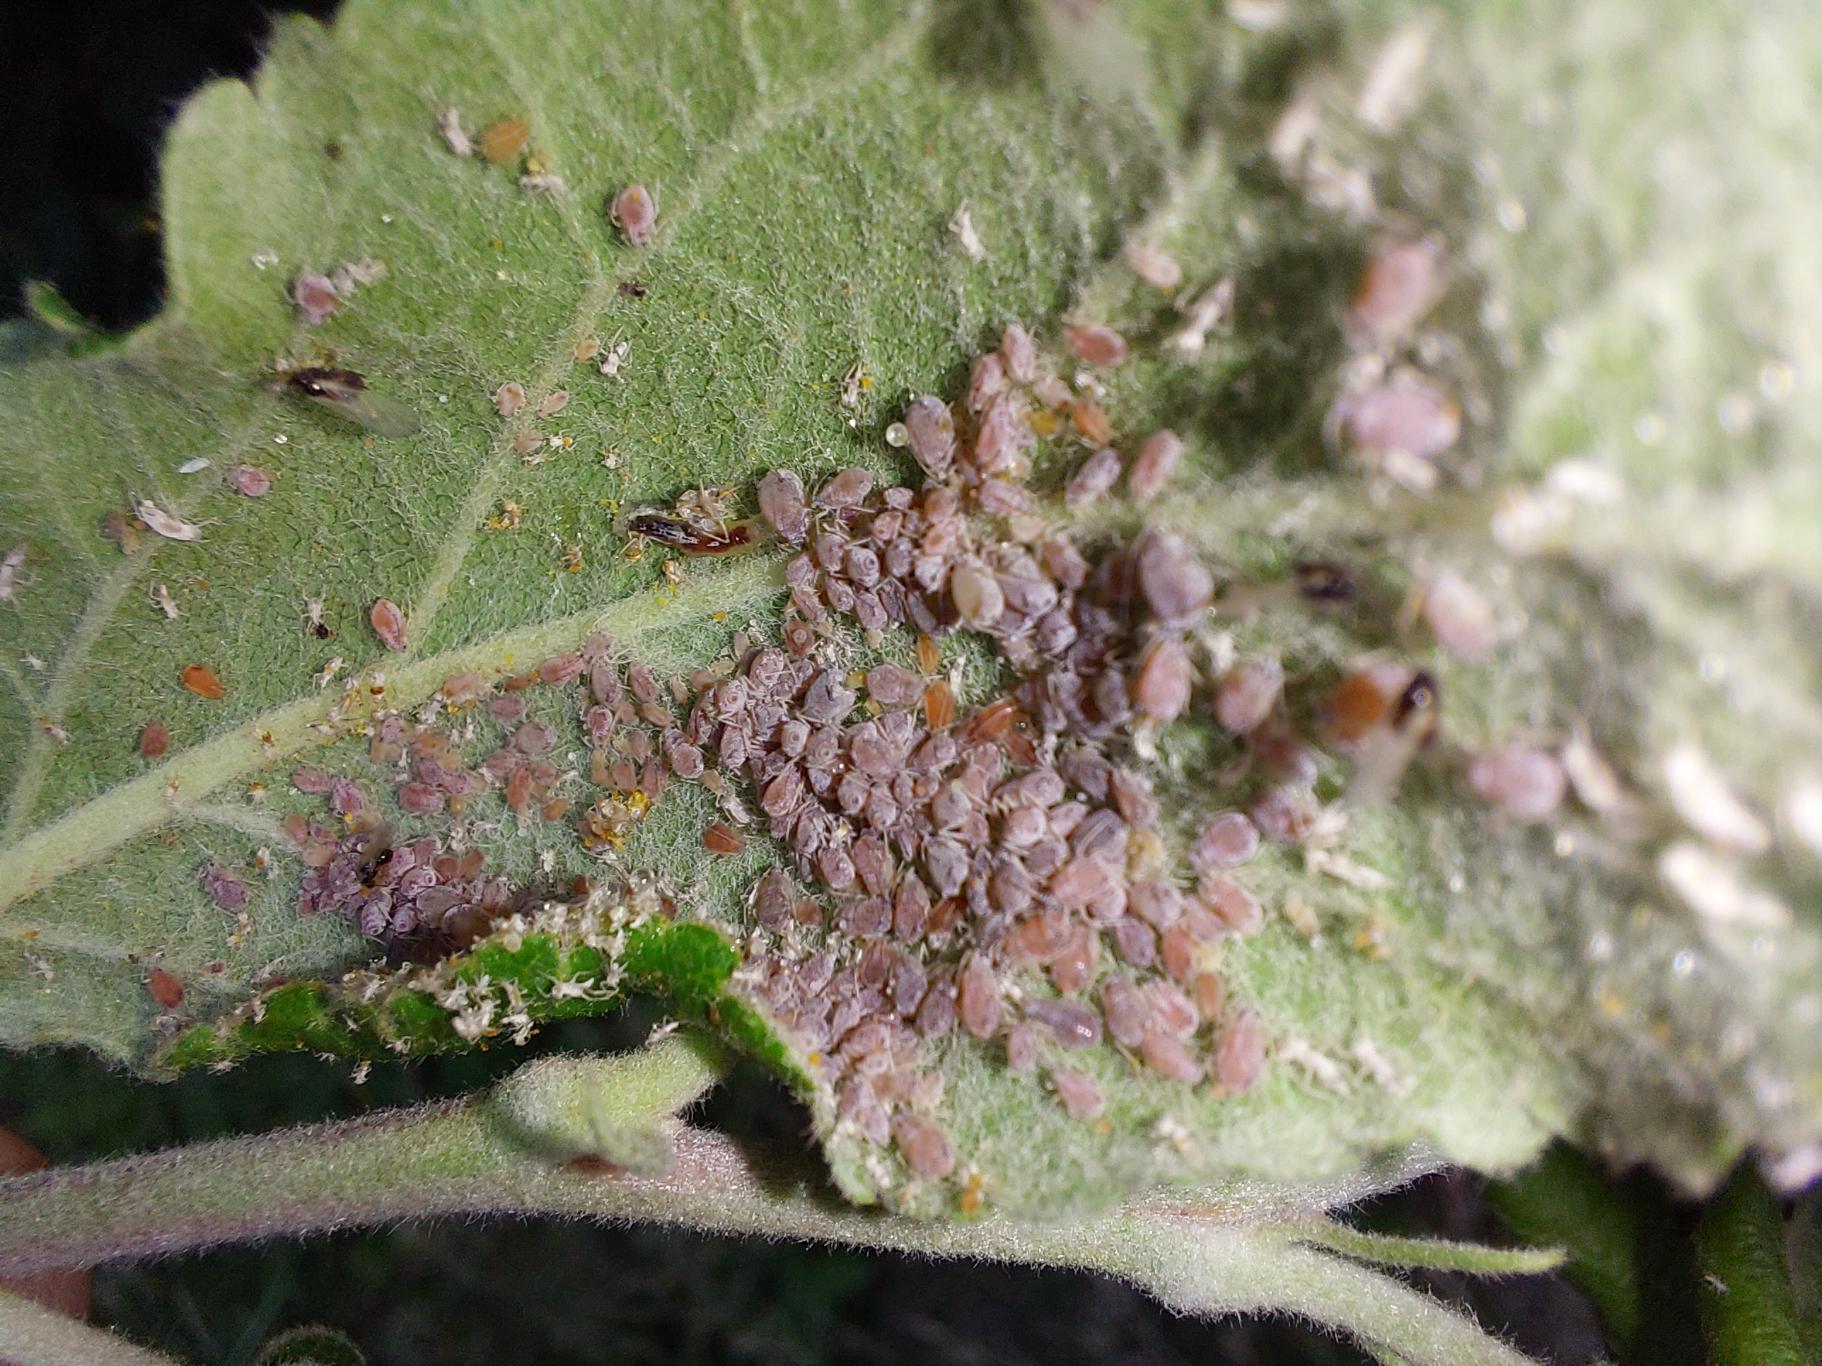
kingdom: Animalia
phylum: Arthropoda
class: Insecta
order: Hemiptera
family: Aphididae
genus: Hyalopterus
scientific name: Hyalopterus pruni
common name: Melet blommebladlus
